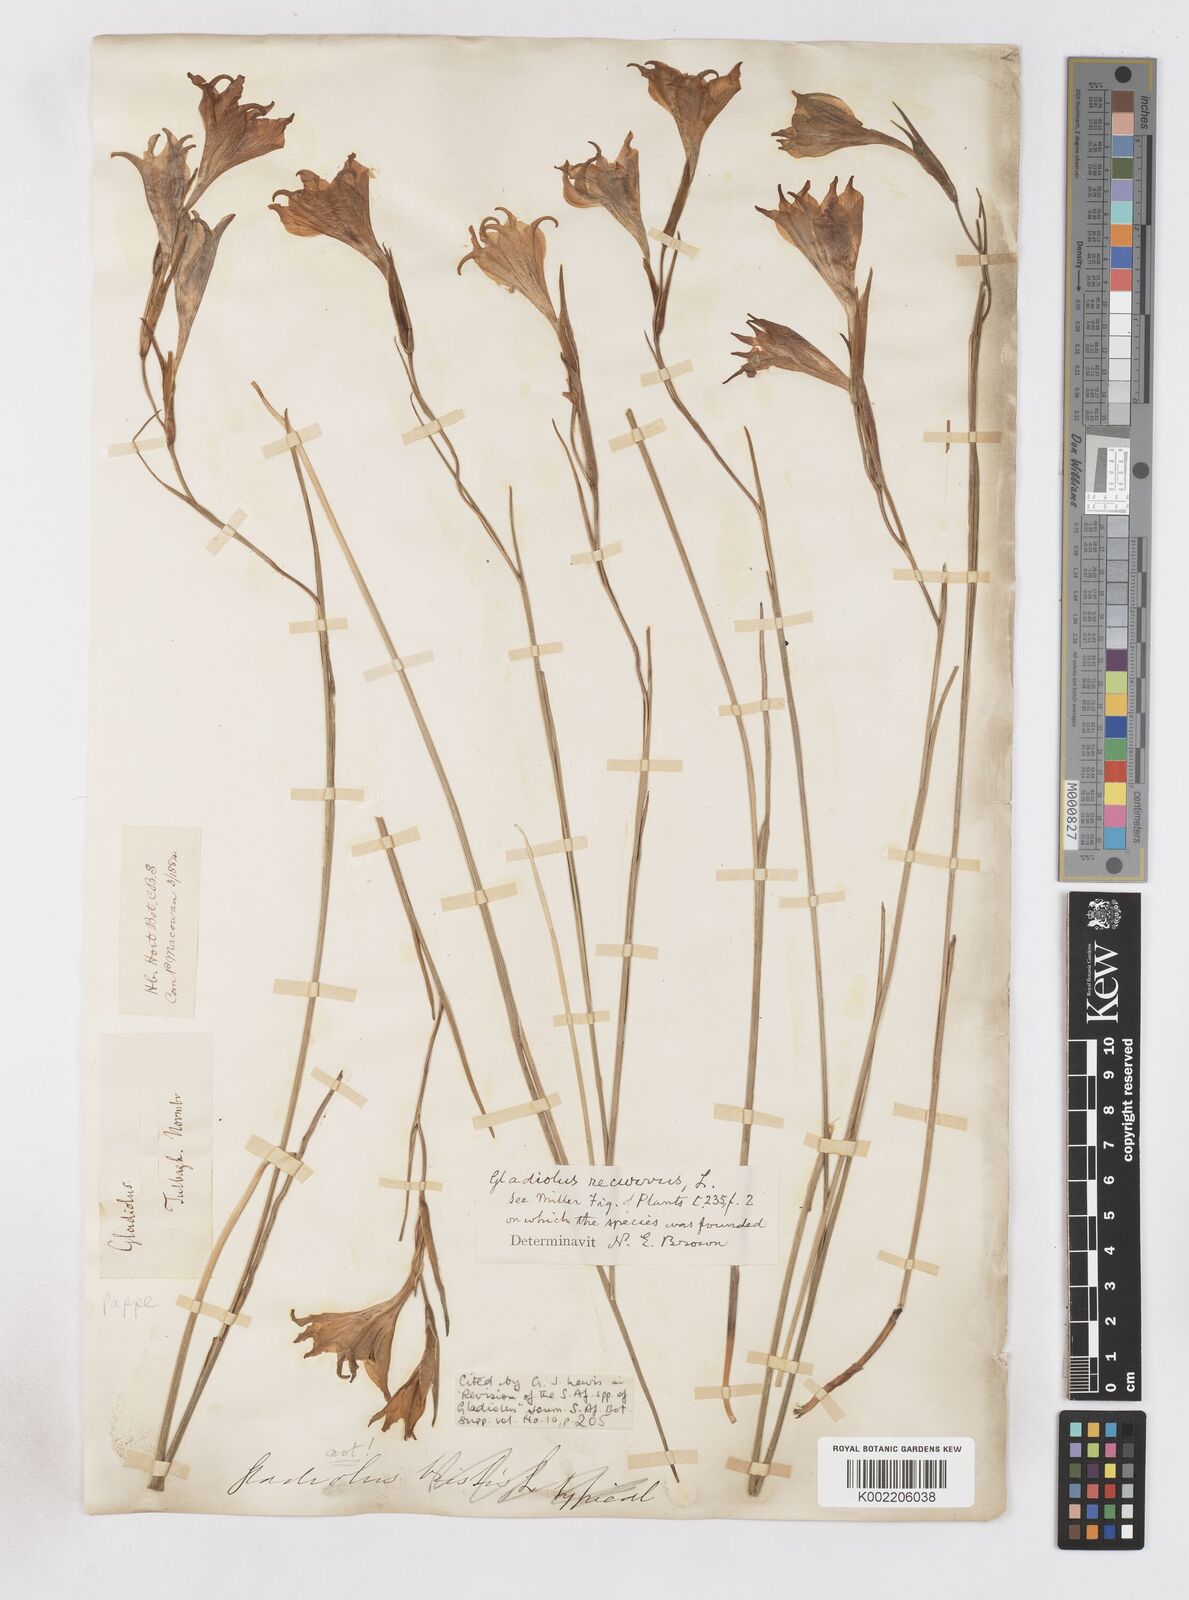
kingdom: Plantae
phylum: Tracheophyta
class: Liliopsida
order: Asparagales
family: Iridaceae
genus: Gladiolus
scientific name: Gladiolus recurvus
